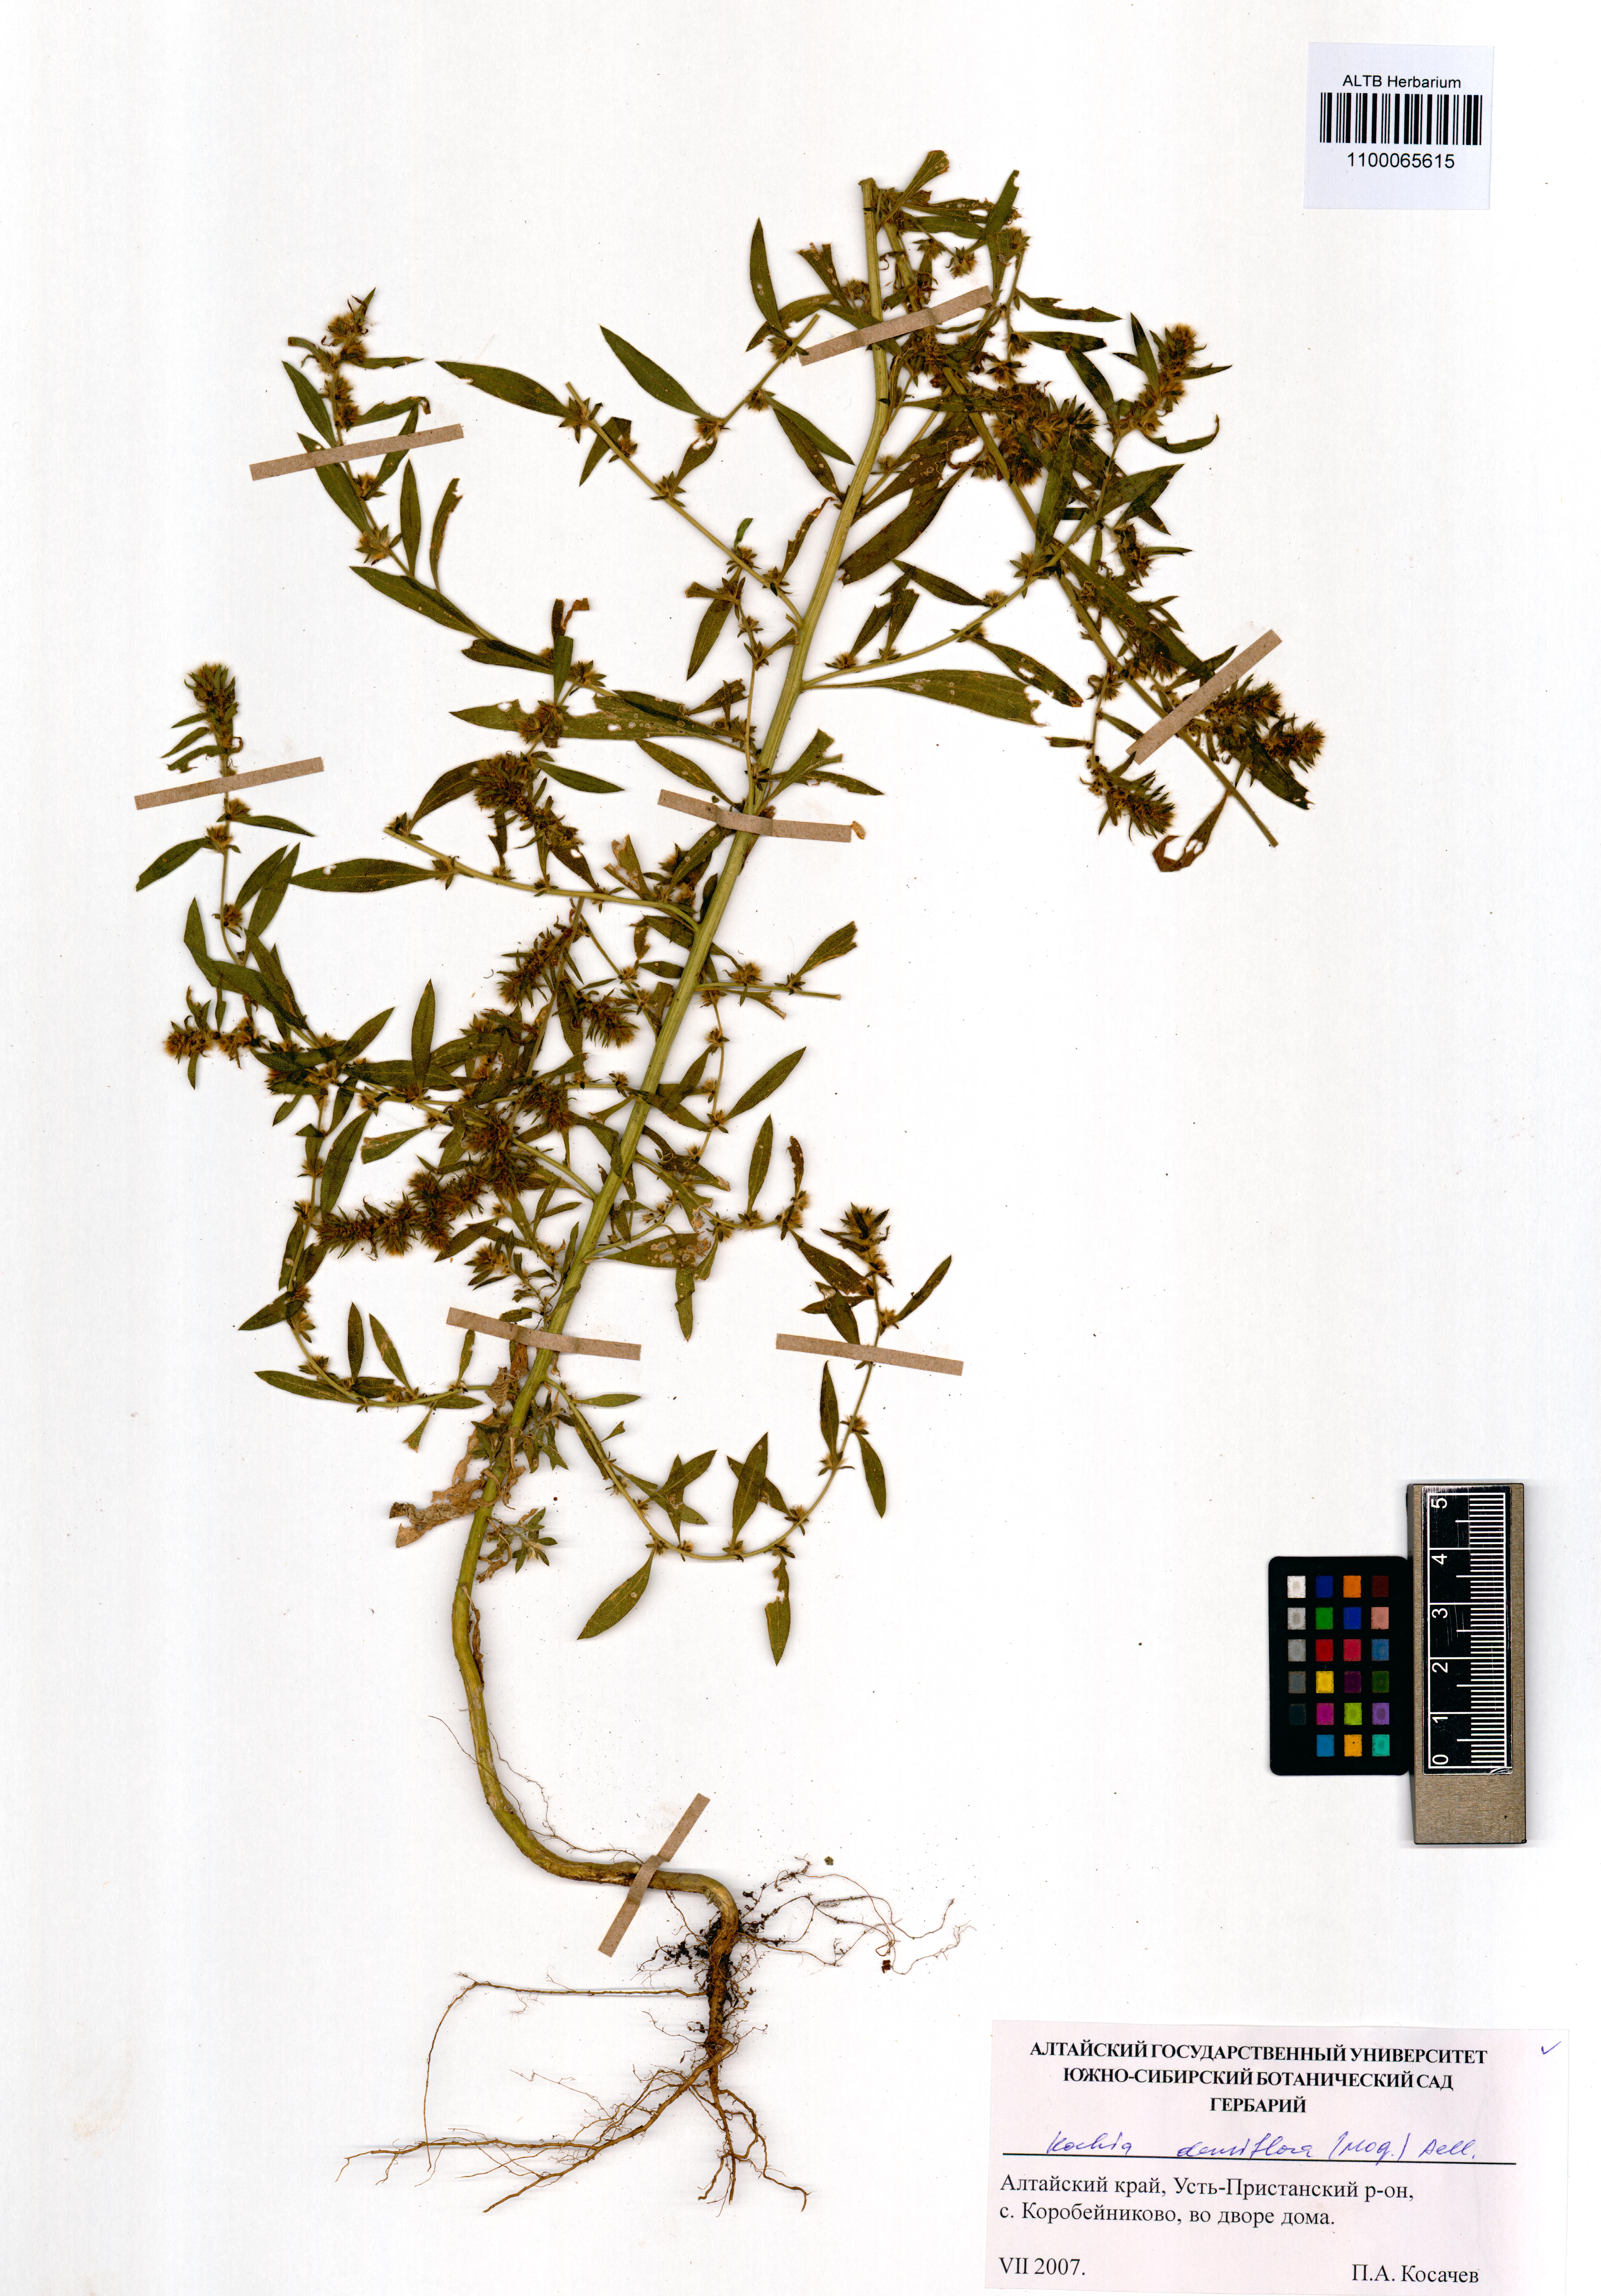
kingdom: Plantae
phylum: Tracheophyta
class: Magnoliopsida
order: Caryophyllales
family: Amaranthaceae
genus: Bassia
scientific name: Bassia scoparia
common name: Belvedere
